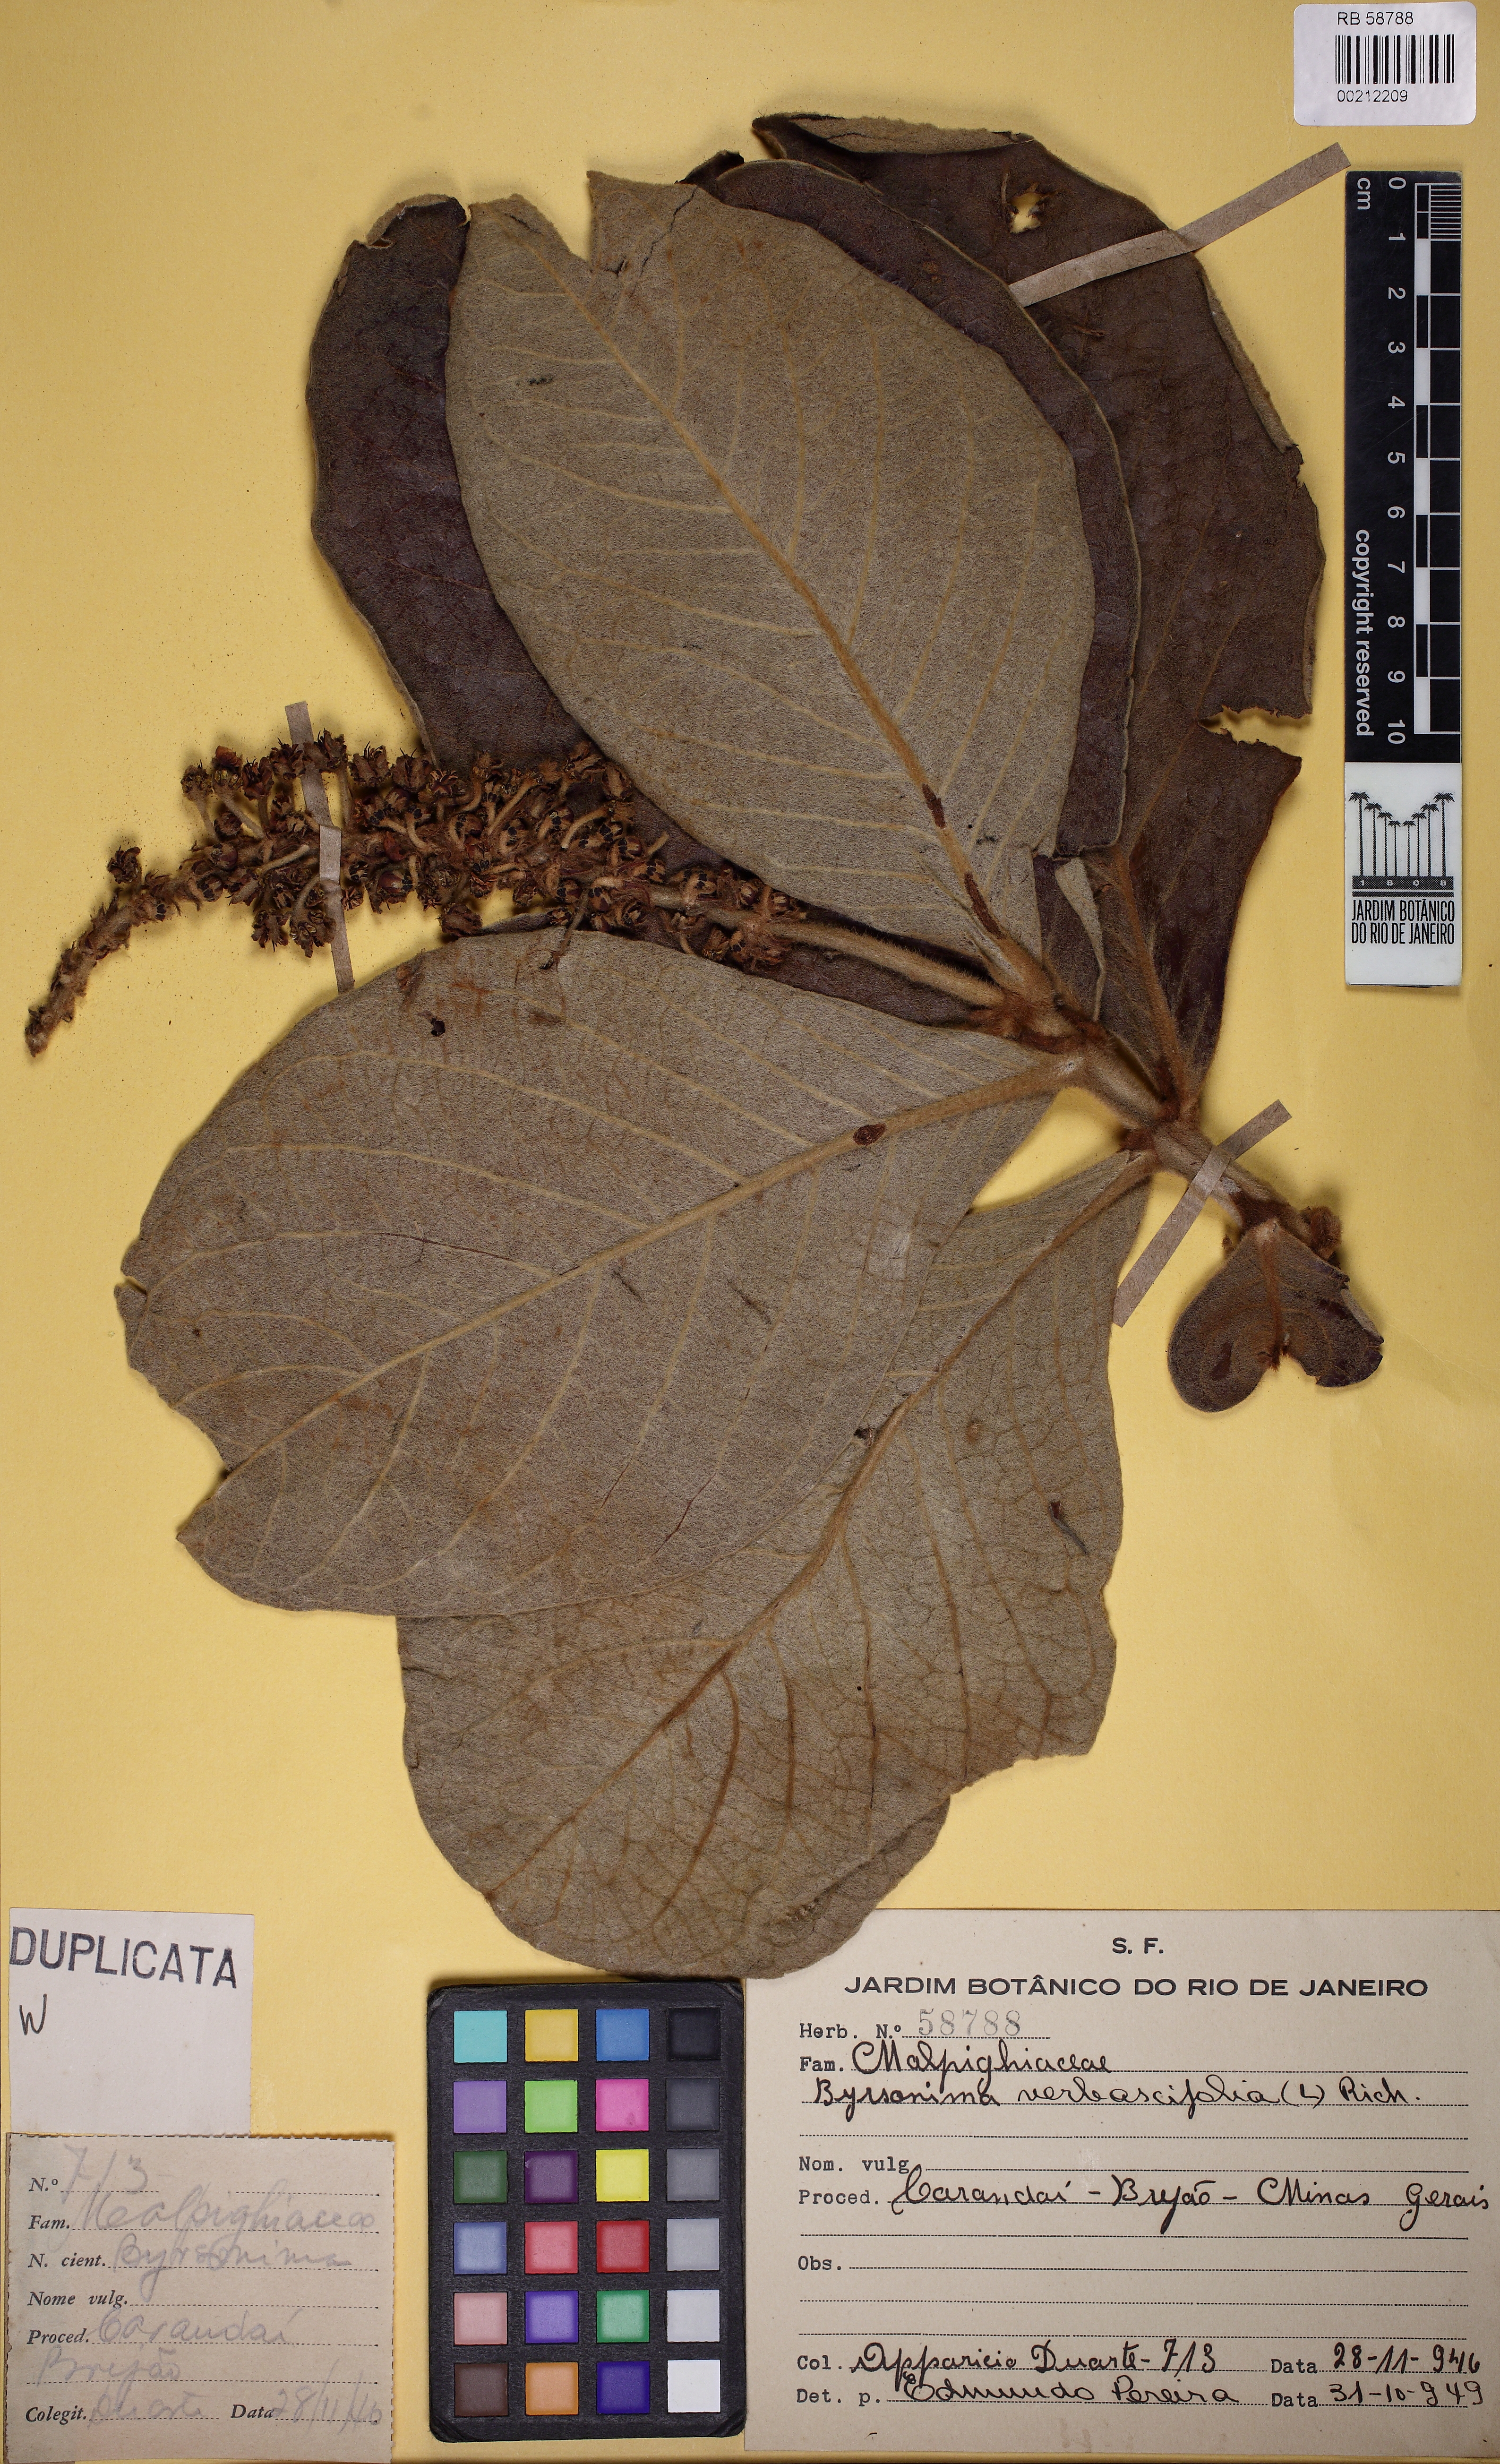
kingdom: Plantae
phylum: Tracheophyta
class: Magnoliopsida
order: Malpighiales
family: Malpighiaceae
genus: Byrsonima
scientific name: Byrsonima verbascifolia
